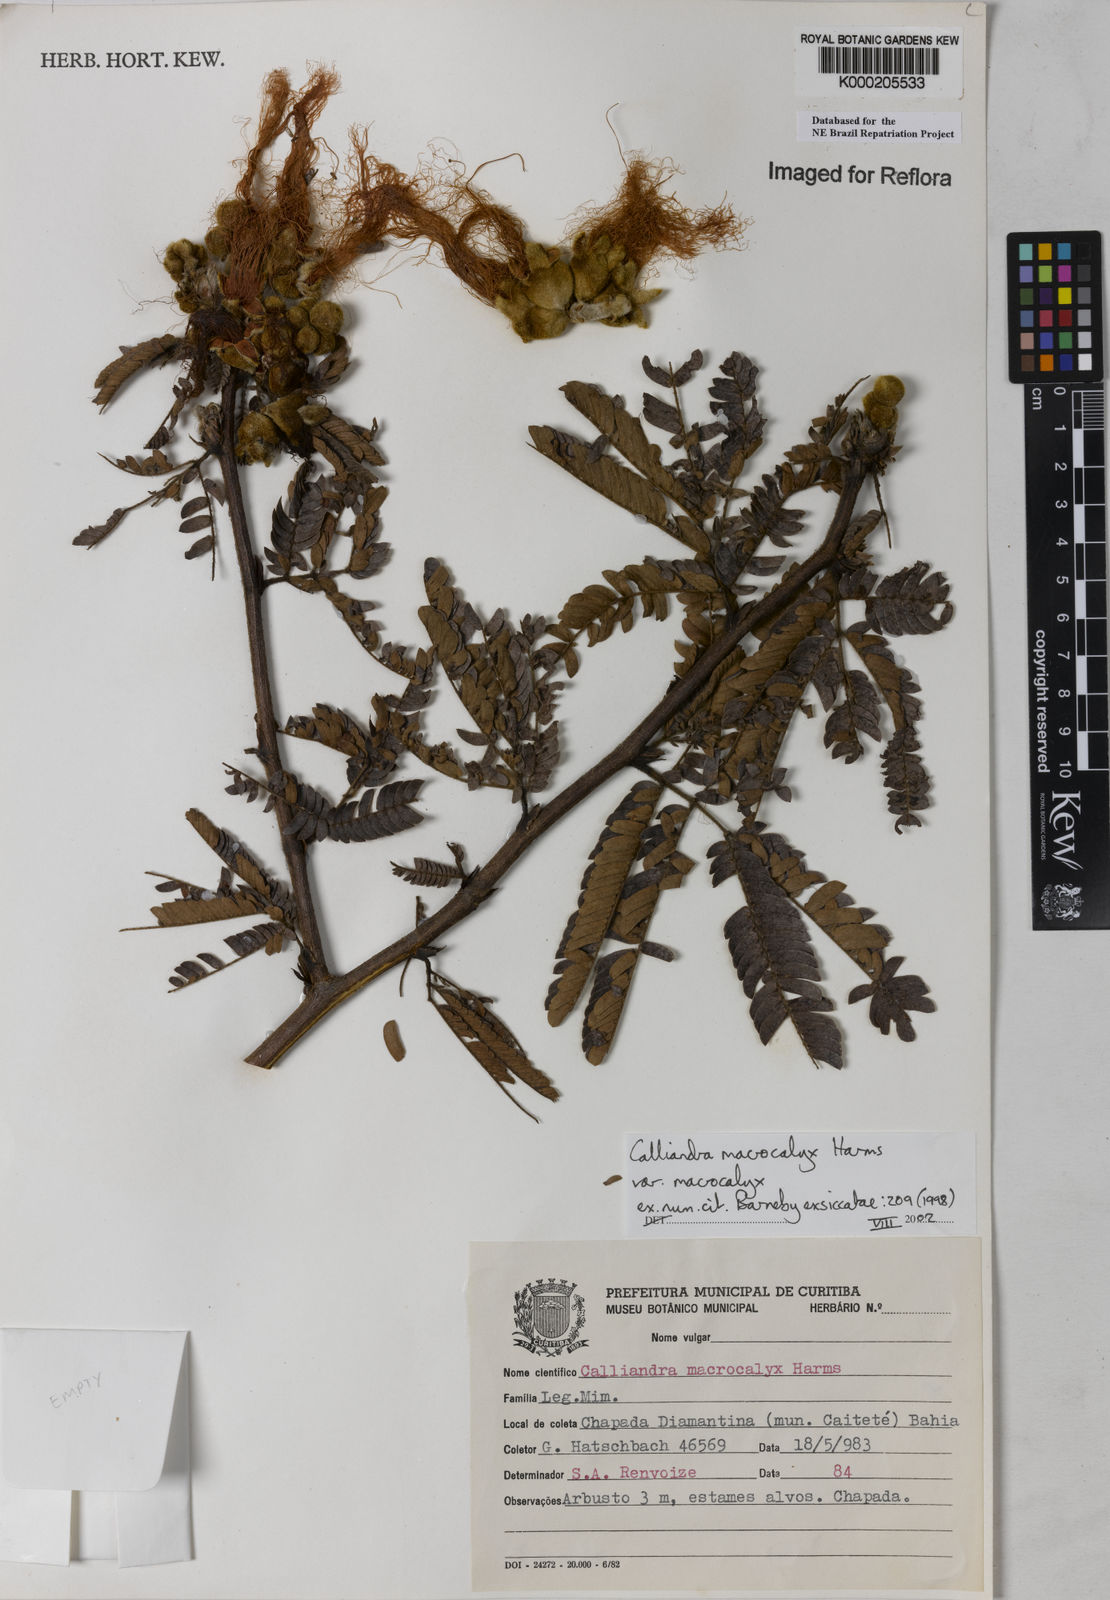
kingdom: Plantae
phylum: Tracheophyta
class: Magnoliopsida
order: Fabales
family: Fabaceae
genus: Calliandra
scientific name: Calliandra macrocalyx
